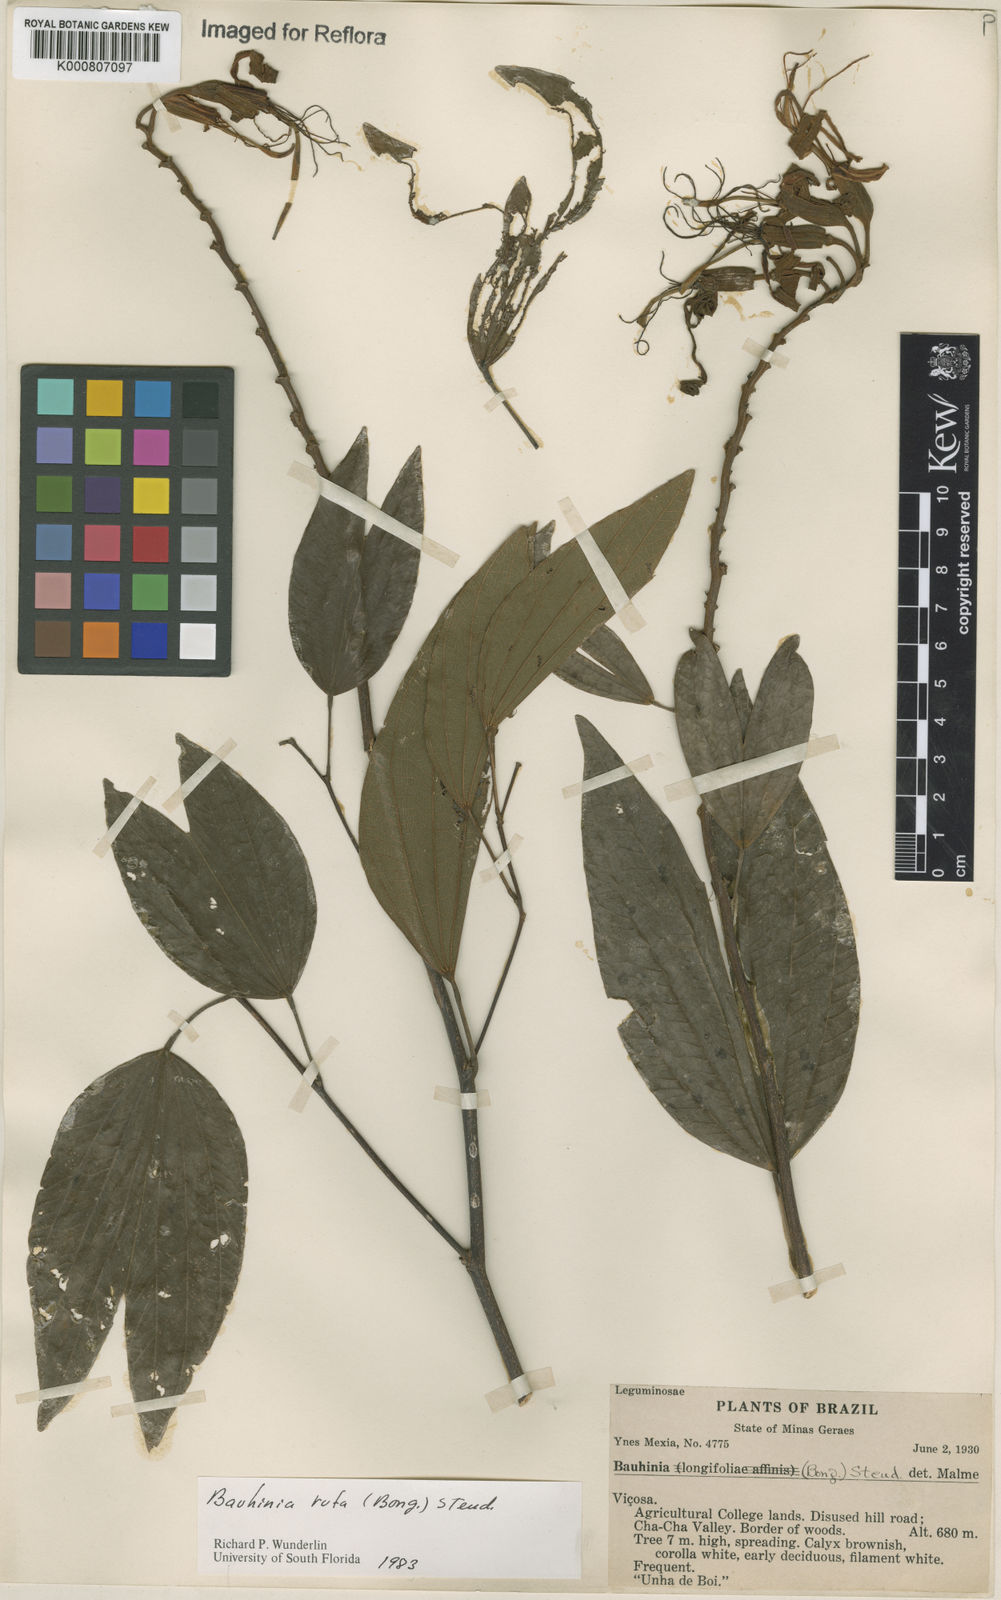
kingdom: Plantae
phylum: Tracheophyta
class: Magnoliopsida
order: Fabales
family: Fabaceae
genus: Bauhinia
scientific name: Bauhinia rufa
